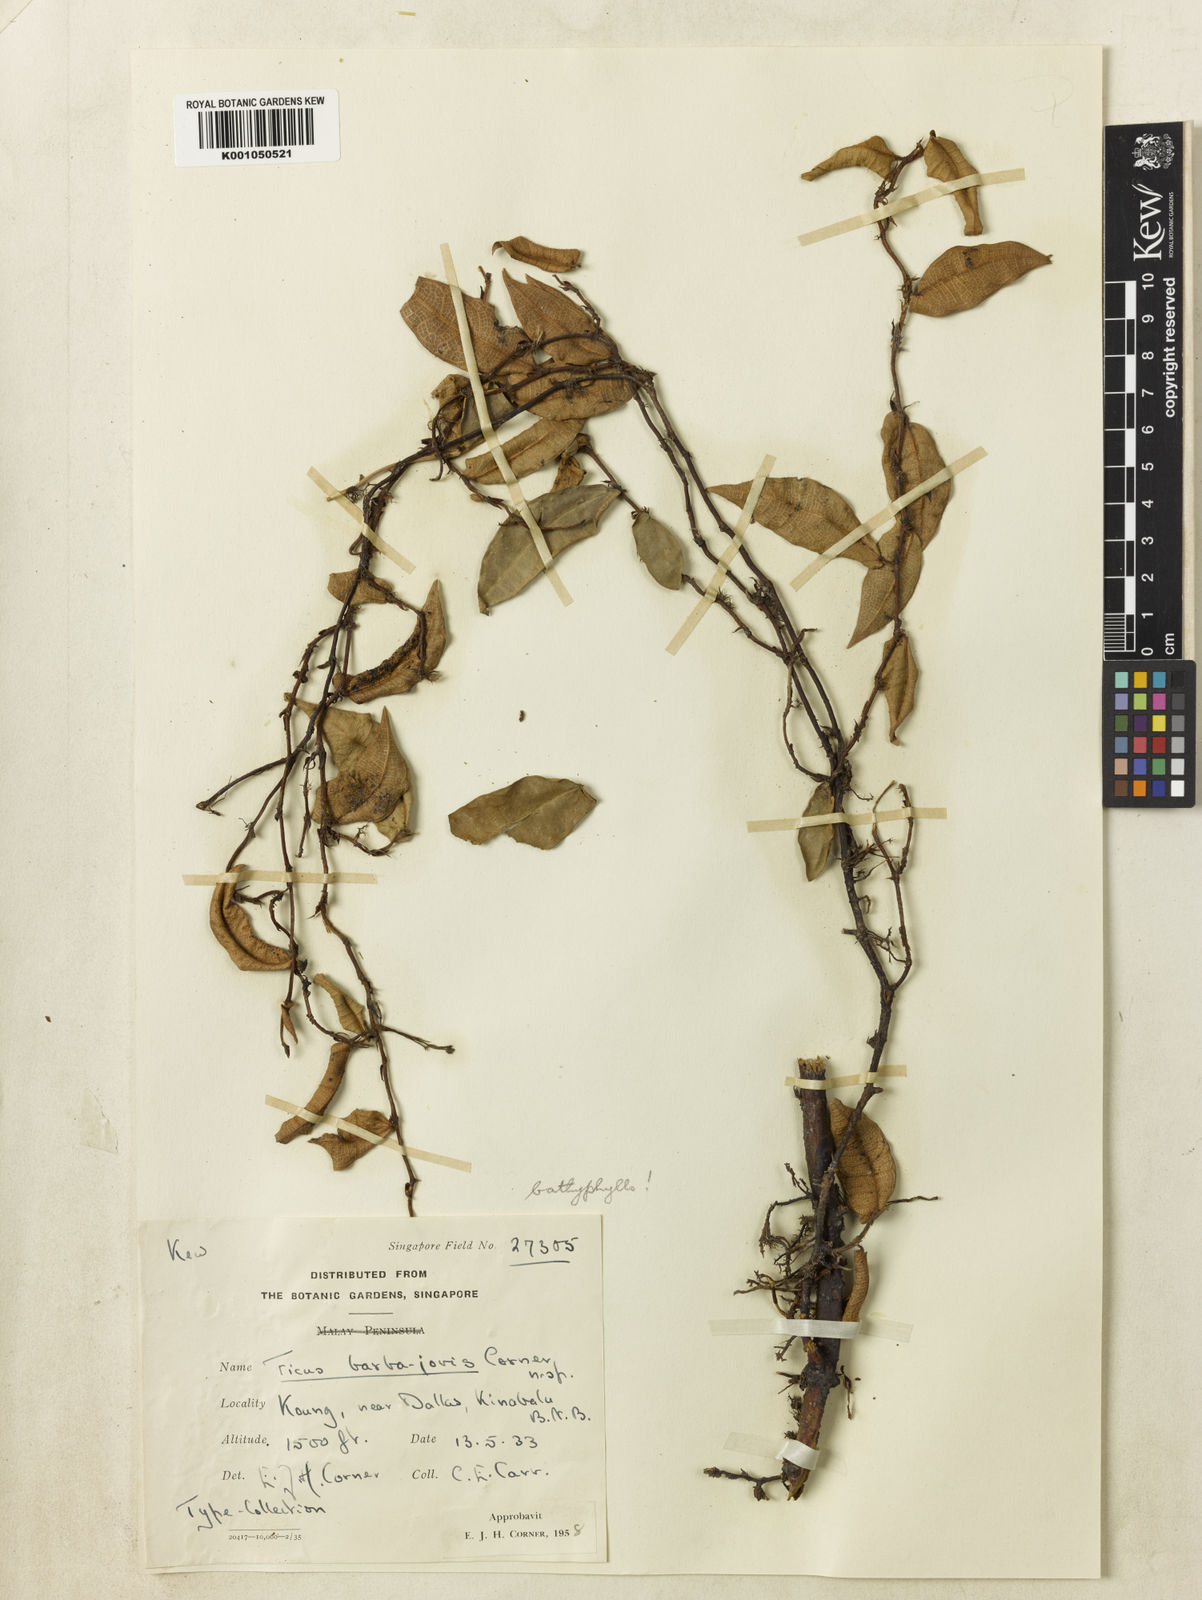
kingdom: Plantae
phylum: Tracheophyta
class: Magnoliopsida
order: Rosales
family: Moraceae
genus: Ficus
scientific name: Ficus barba-jovis
